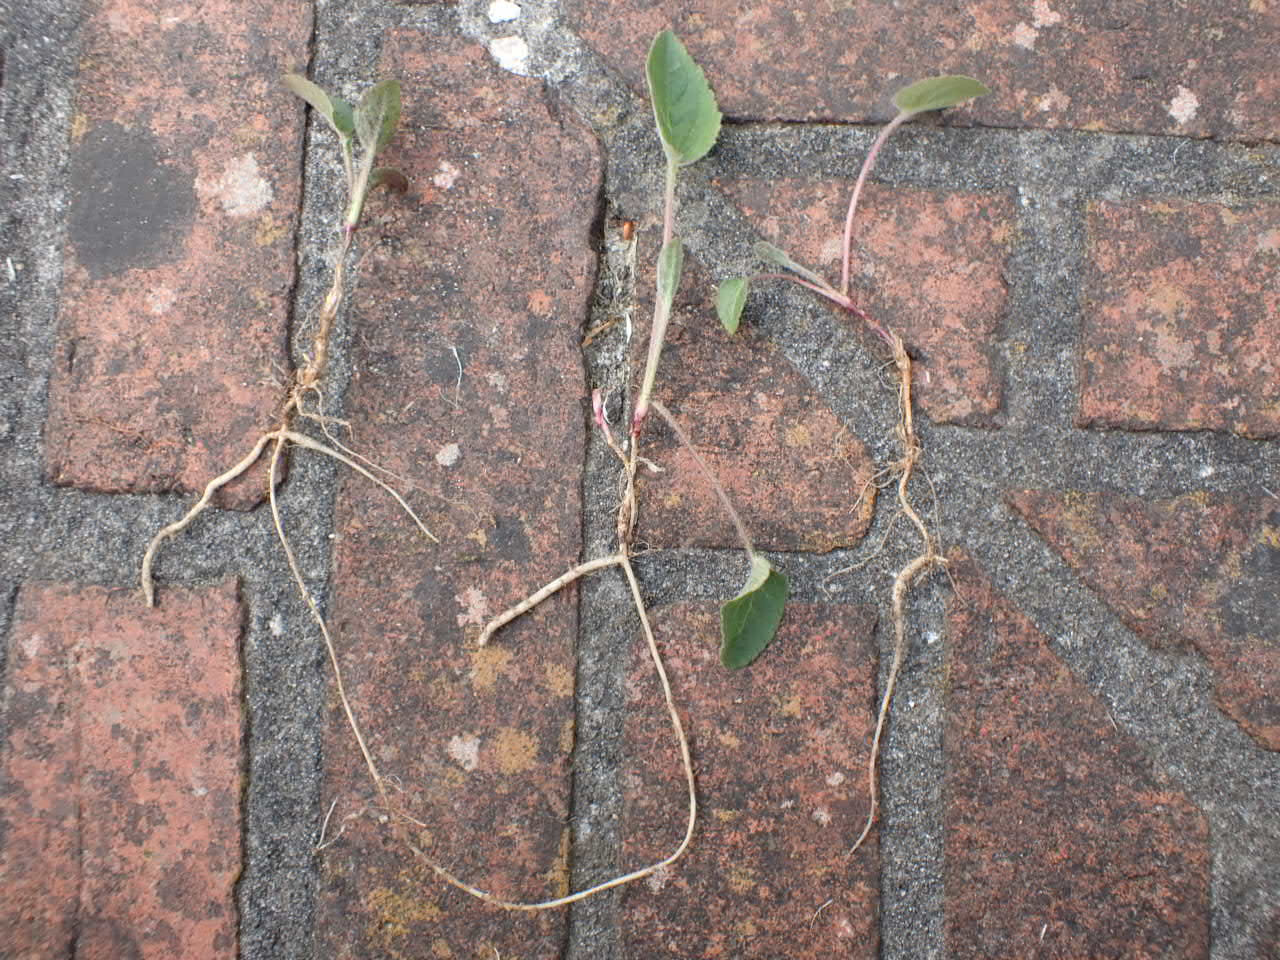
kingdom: Plantae
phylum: Tracheophyta
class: Magnoliopsida
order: Asterales
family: Campanulaceae
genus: Campanula
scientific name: Campanula rapunculoides
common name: Ensidig klokke
